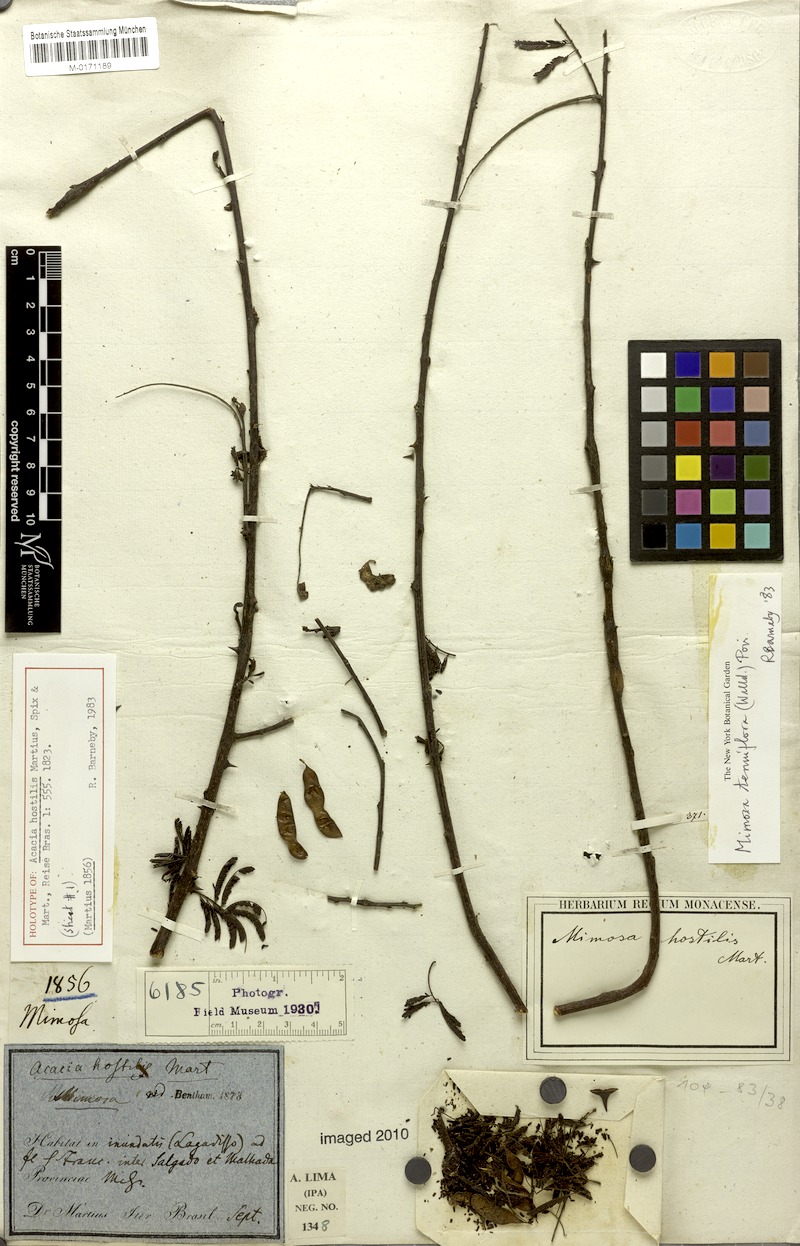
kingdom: Plantae
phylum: Tracheophyta
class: Magnoliopsida
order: Fabales
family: Fabaceae
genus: Mimosa
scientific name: Mimosa tenuiflora
